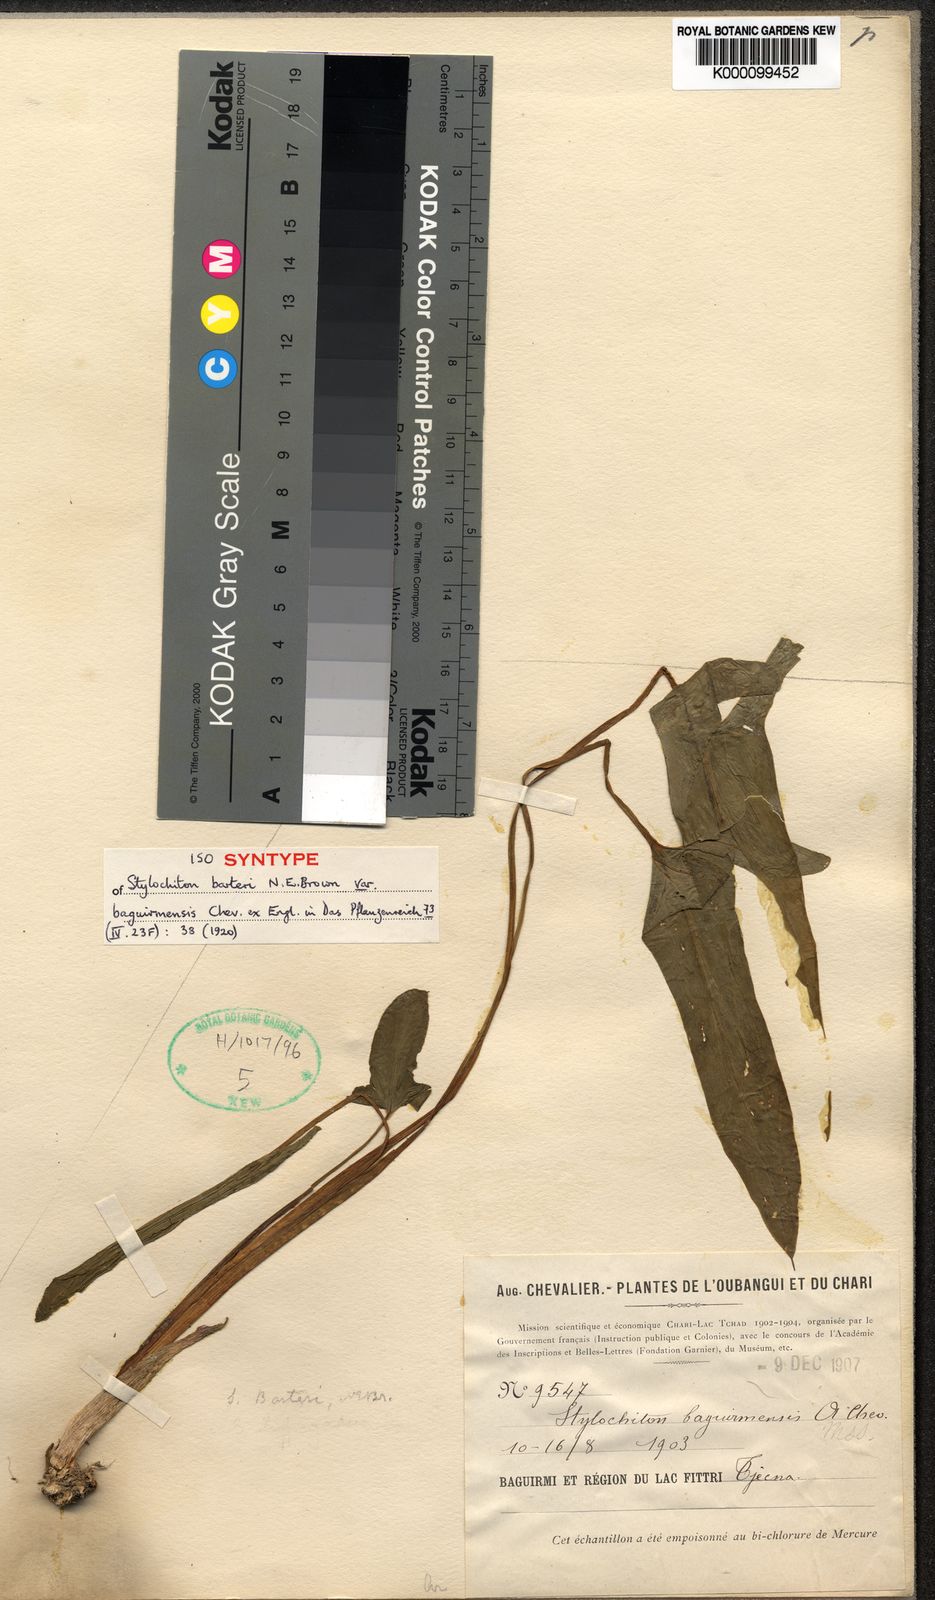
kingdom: Plantae
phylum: Tracheophyta
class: Liliopsida
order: Alismatales
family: Araceae
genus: Stylochaeton
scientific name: Stylochaeton lancifolium
